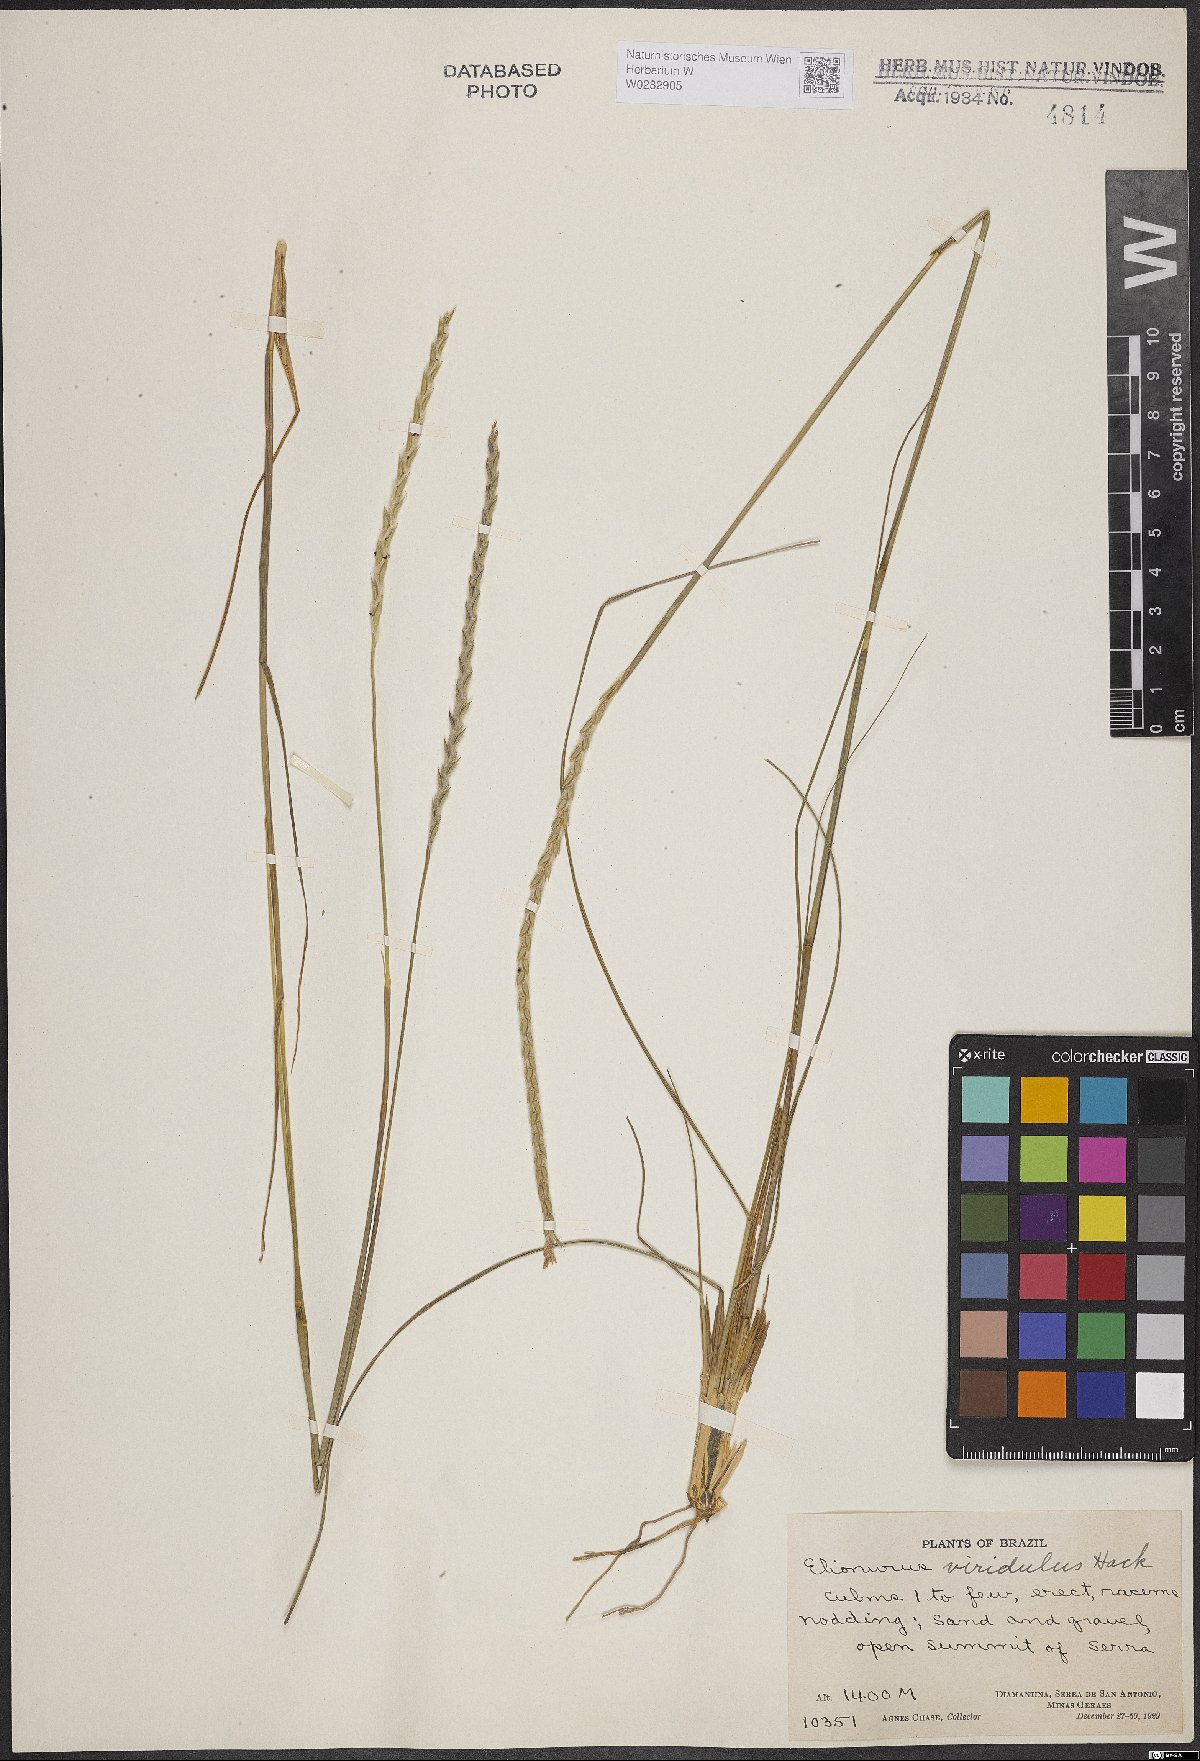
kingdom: Plantae
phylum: Tracheophyta
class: Liliopsida
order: Poales
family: Poaceae
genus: Elionurus
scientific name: Elionurus muticus
